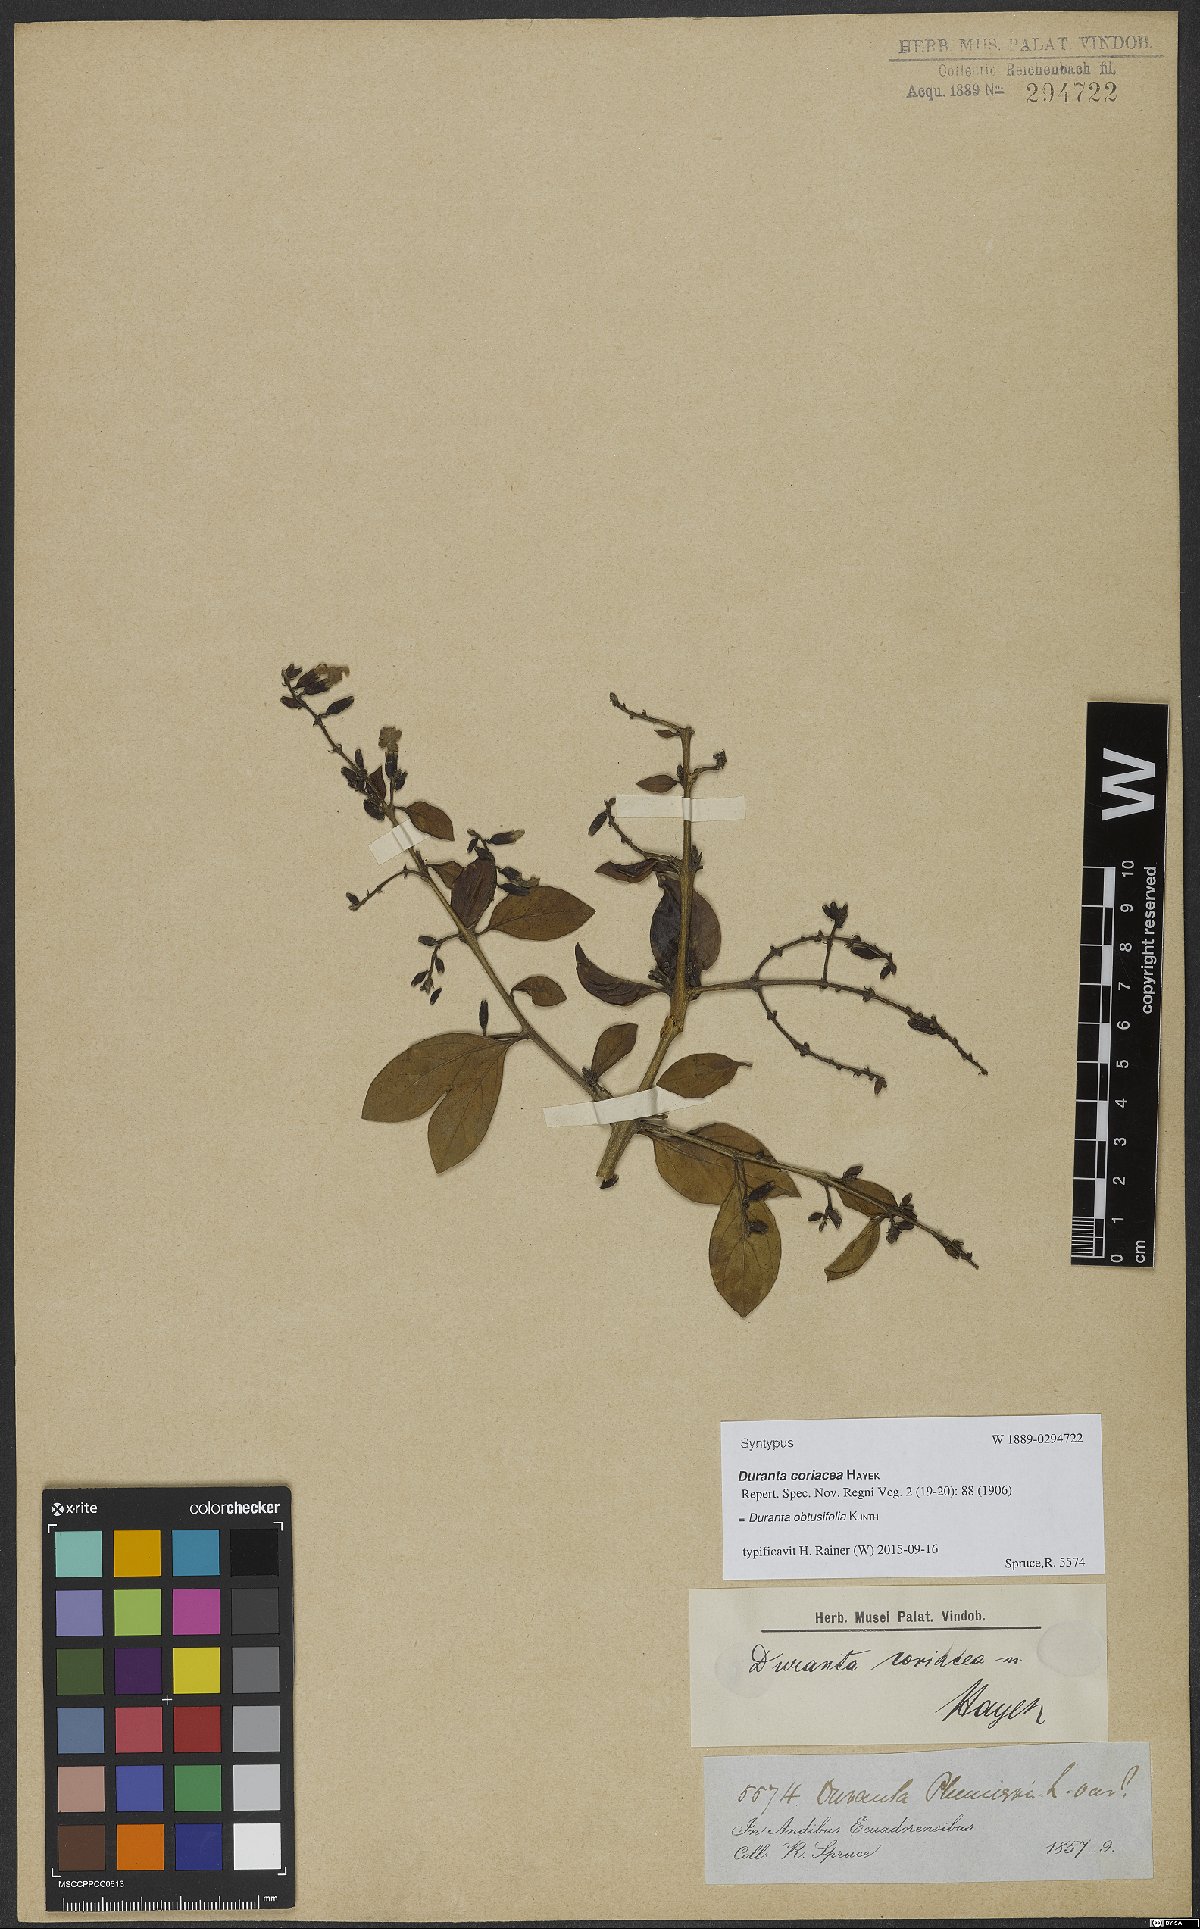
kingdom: Plantae
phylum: Tracheophyta
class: Magnoliopsida
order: Lamiales
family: Verbenaceae
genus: Duranta
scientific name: Duranta obtusifolia
